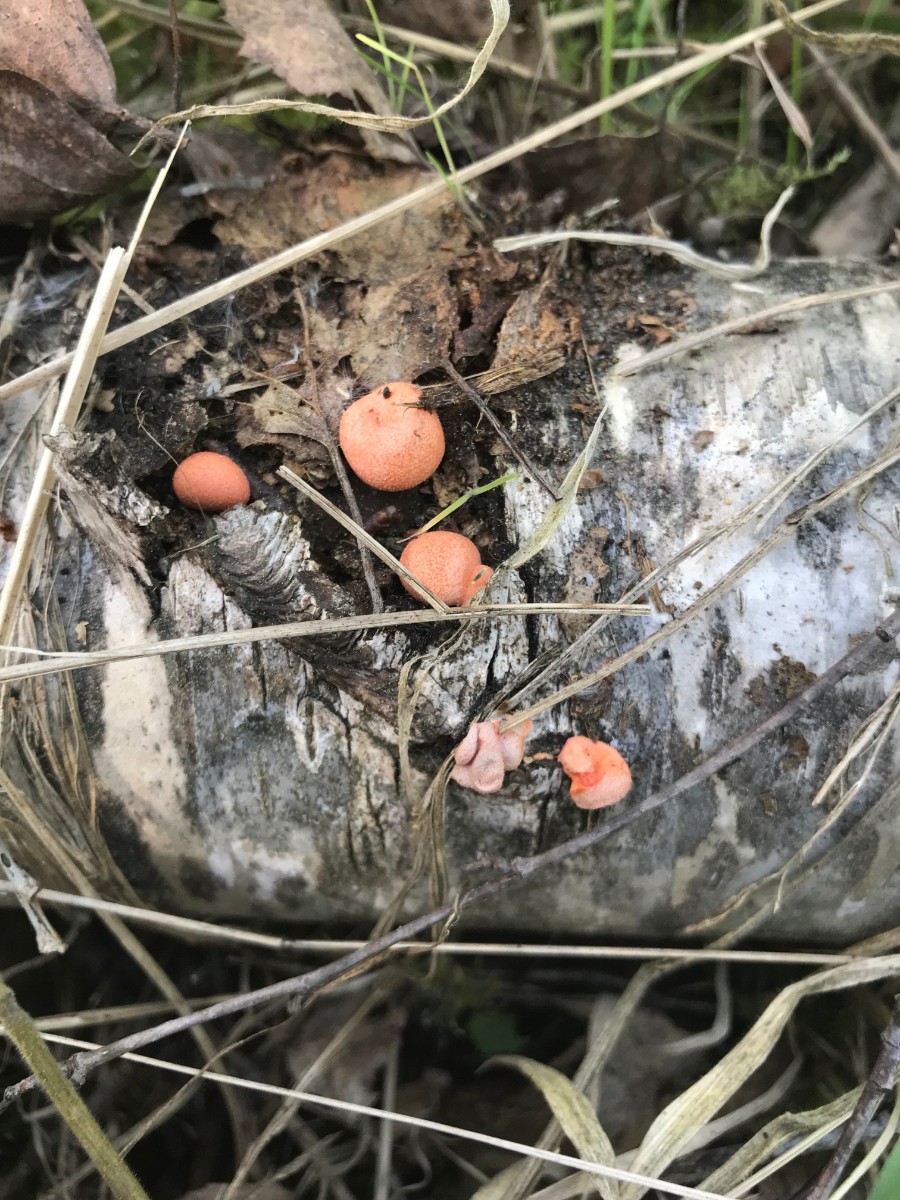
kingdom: Protozoa
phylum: Mycetozoa
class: Myxomycetes
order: Cribrariales
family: Tubiferaceae
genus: Lycogala
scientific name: Lycogala epidendrum
